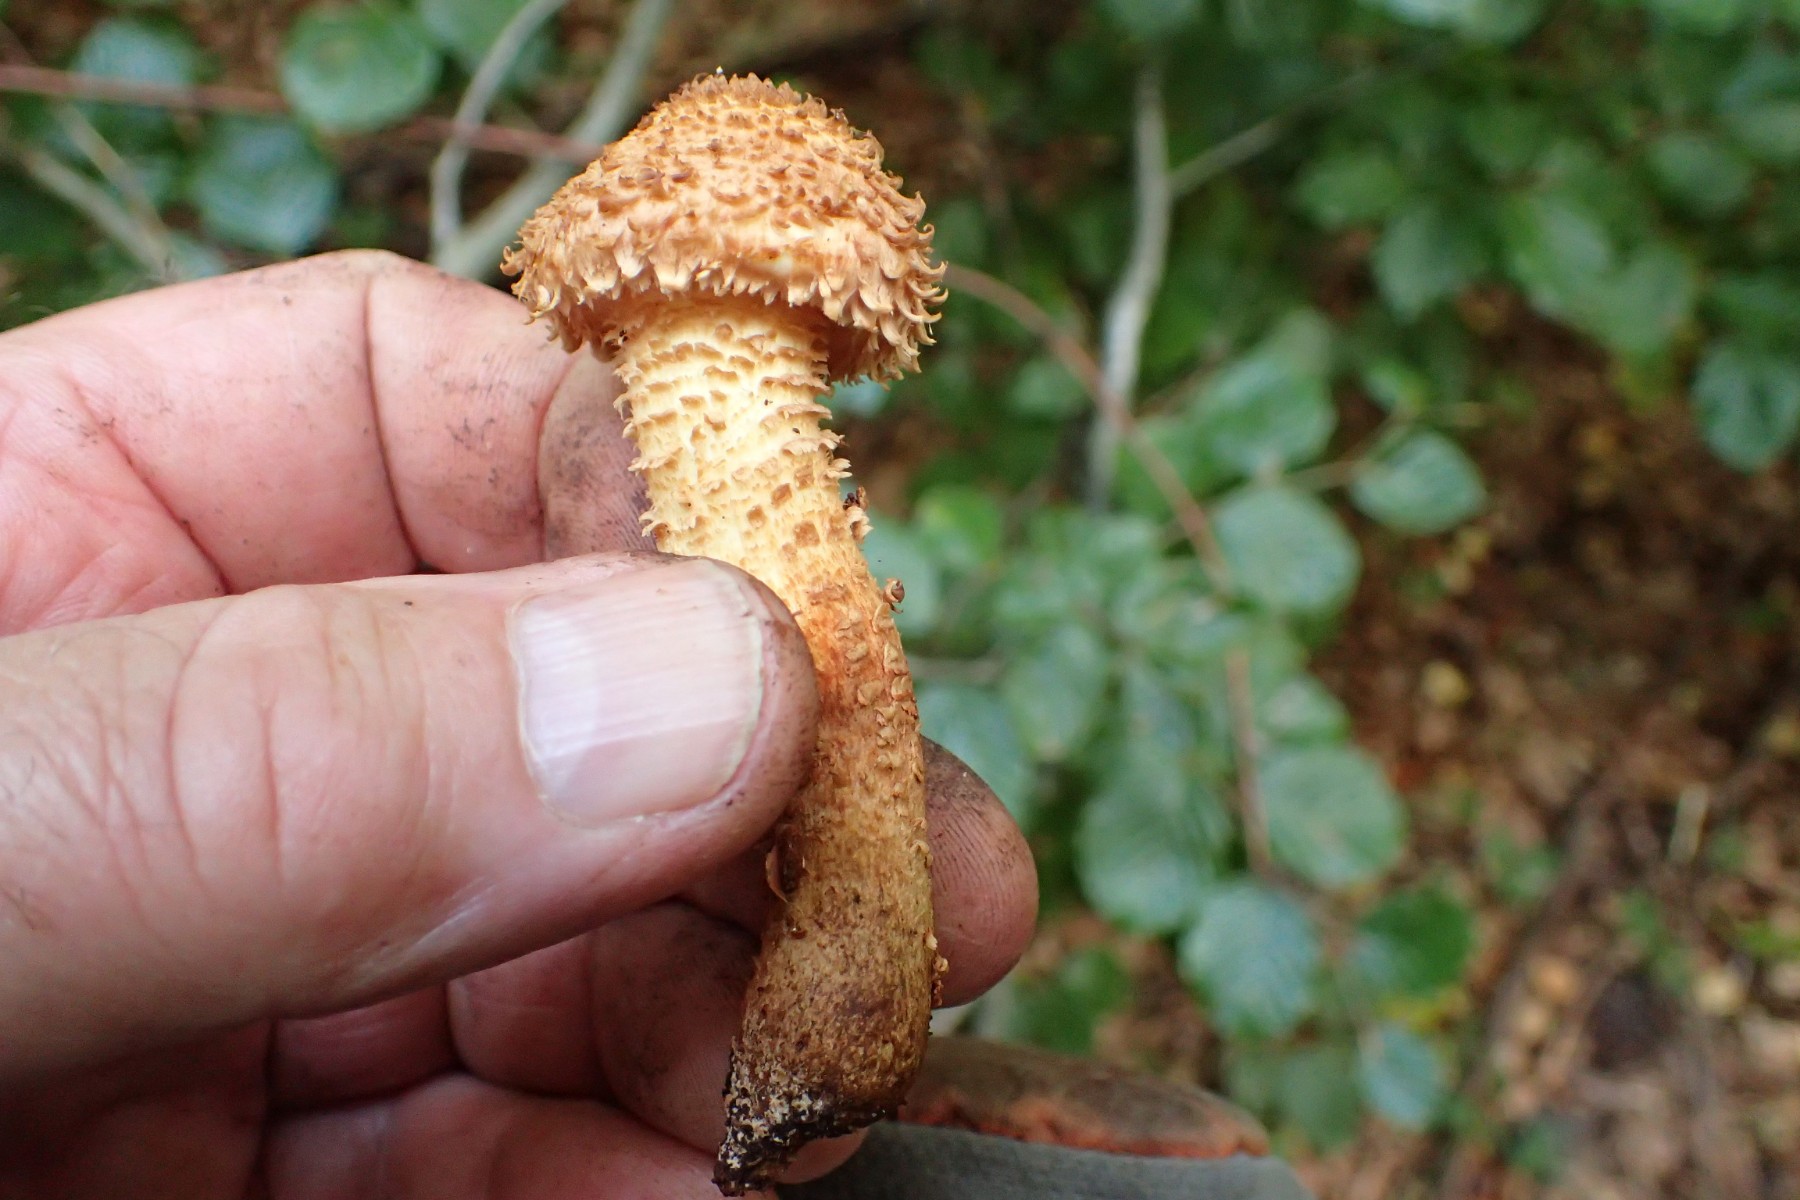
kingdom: Fungi
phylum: Basidiomycota
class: Agaricomycetes
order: Agaricales
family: Strophariaceae
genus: Pholiota
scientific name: Pholiota squarrosa
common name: krumskællet skælhat
